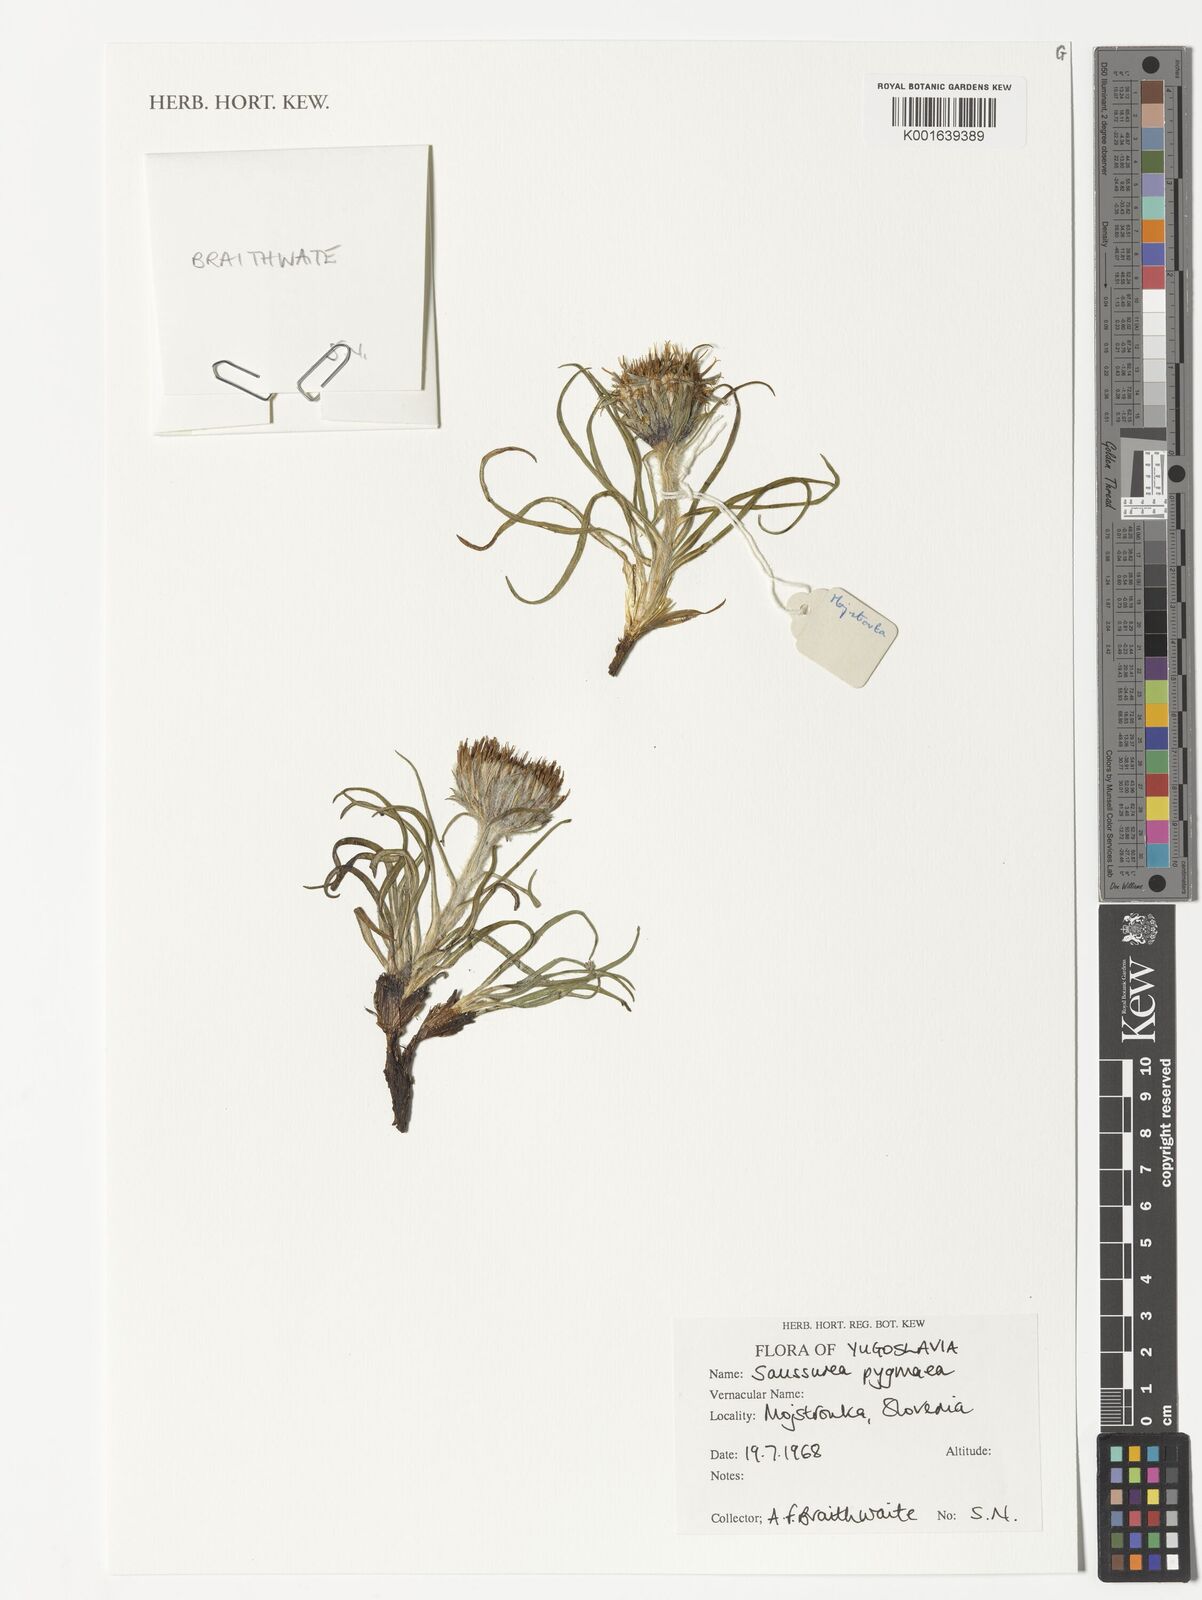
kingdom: Plantae
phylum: Tracheophyta
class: Magnoliopsida
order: Asterales
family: Asteraceae
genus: Saussurea
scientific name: Saussurea pygmaea
